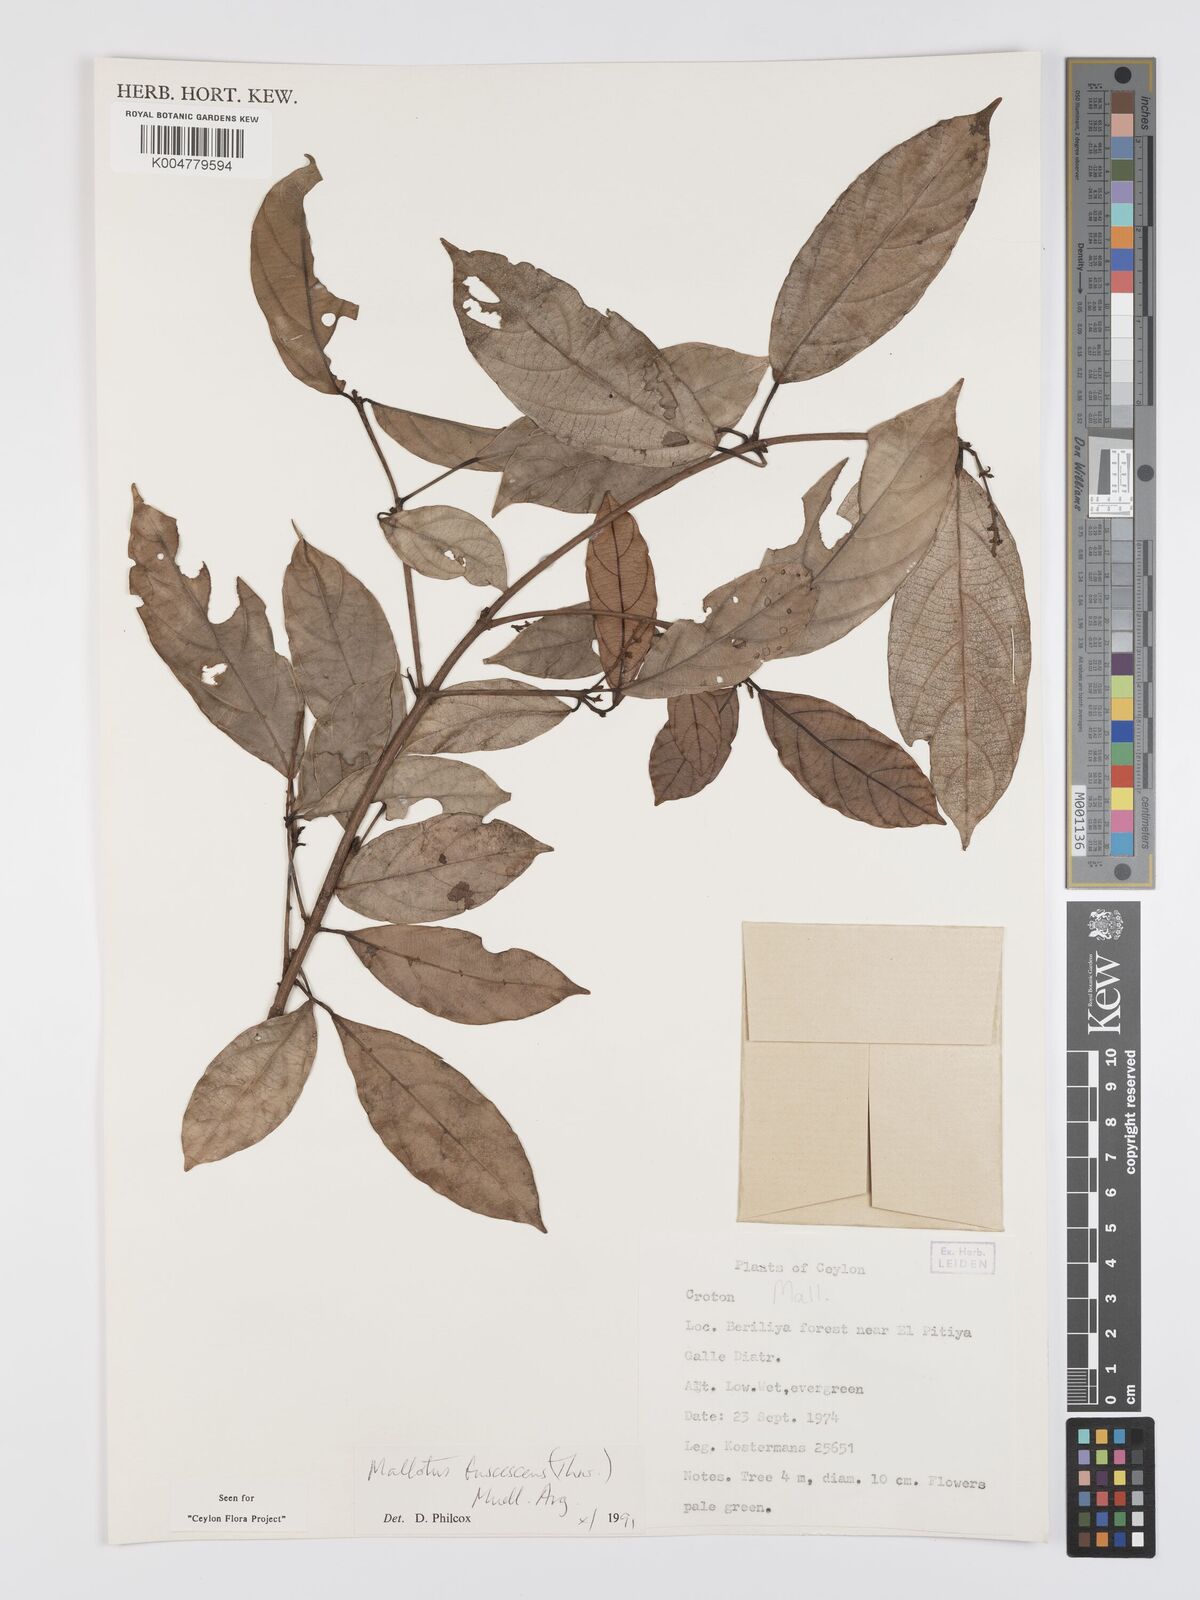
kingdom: Plantae
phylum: Tracheophyta
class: Magnoliopsida
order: Malpighiales
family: Euphorbiaceae
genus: Mallotus
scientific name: Mallotus fuscescens
